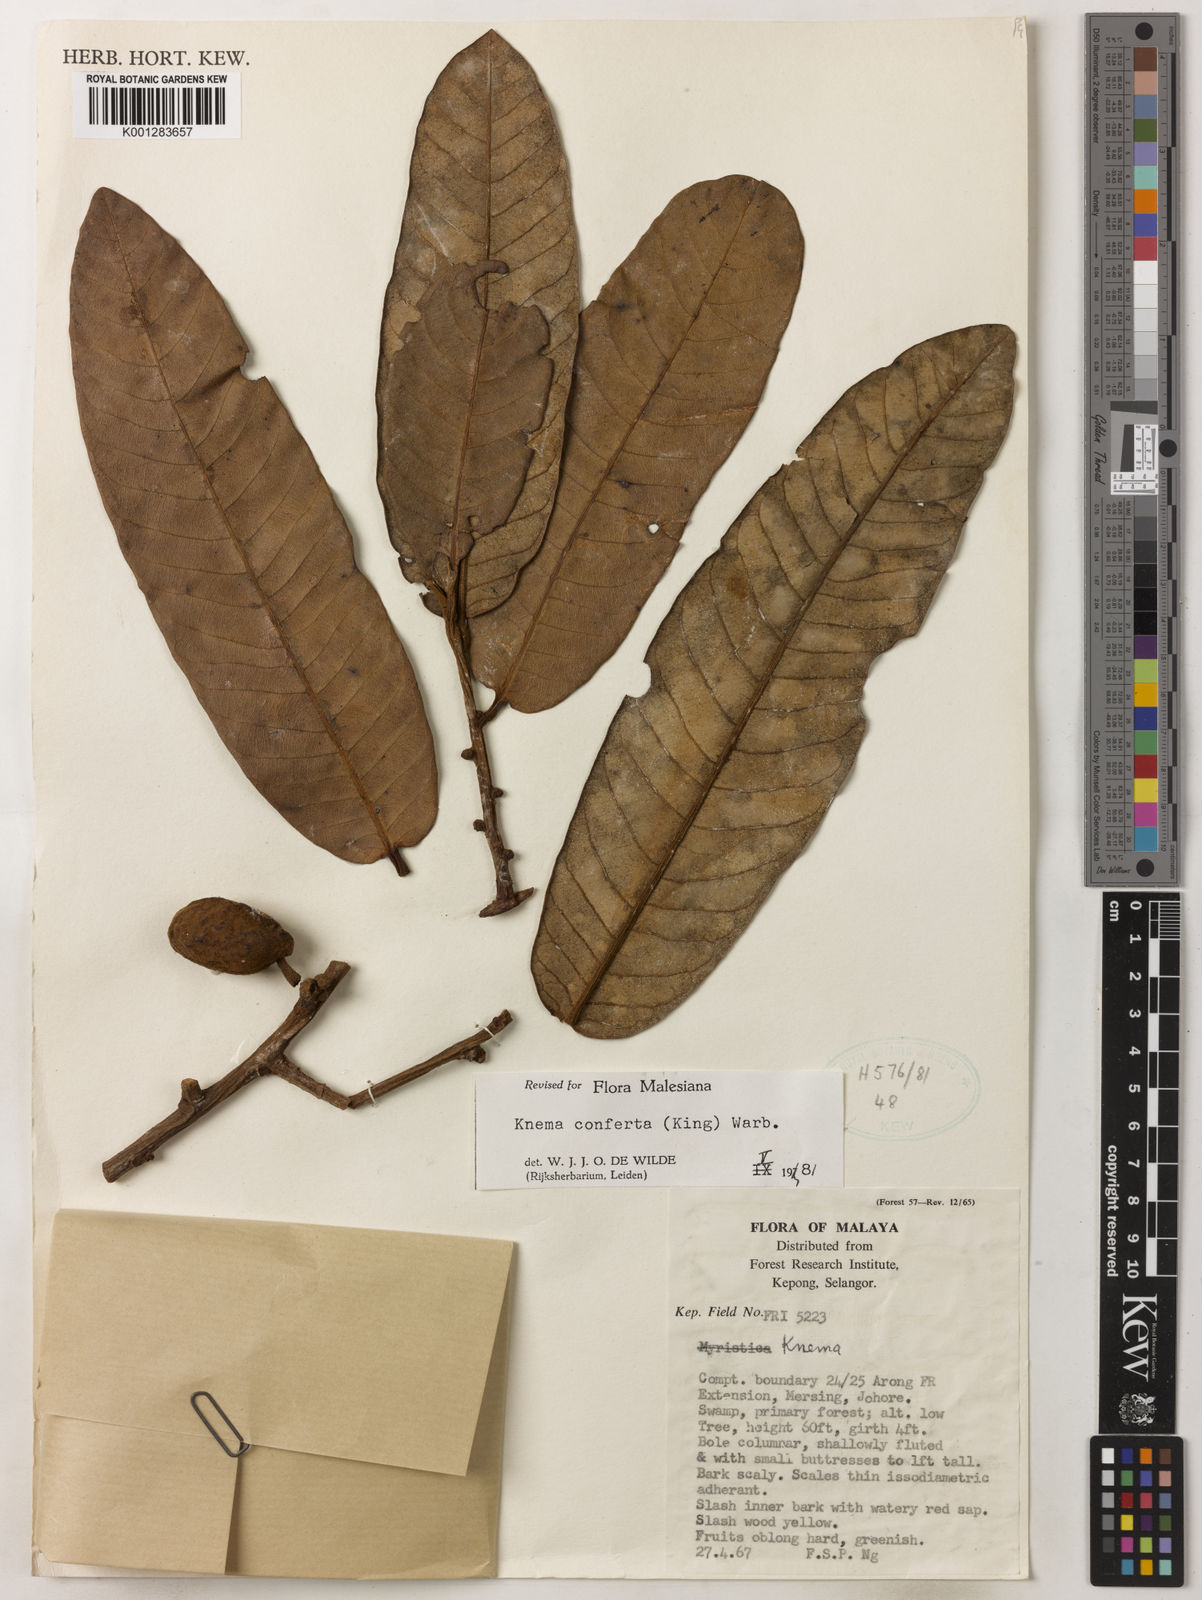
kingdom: Plantae
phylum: Tracheophyta
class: Magnoliopsida
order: Magnoliales
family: Myristicaceae
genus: Knema
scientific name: Knema conferta
